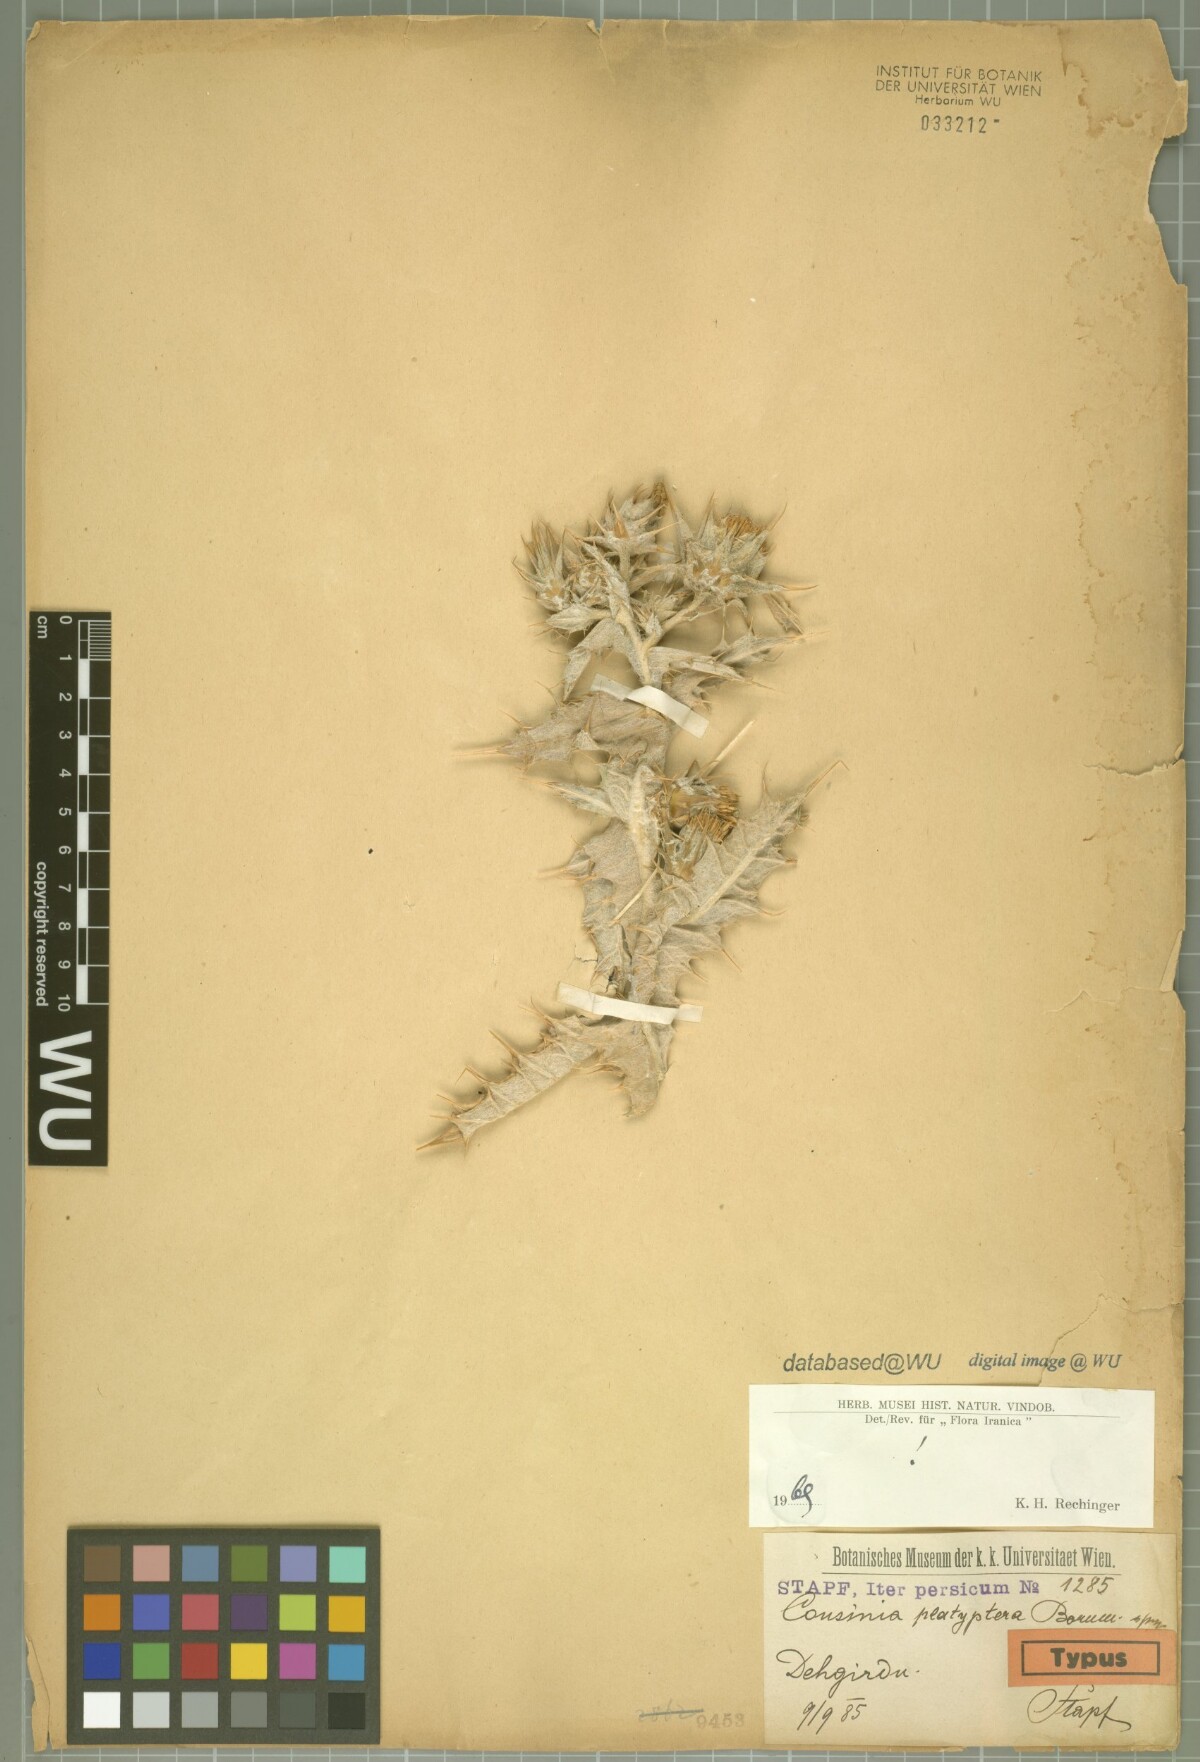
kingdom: Plantae
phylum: Tracheophyta
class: Magnoliopsida
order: Asterales
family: Asteraceae
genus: Cousinia
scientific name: Cousinia platyptera
